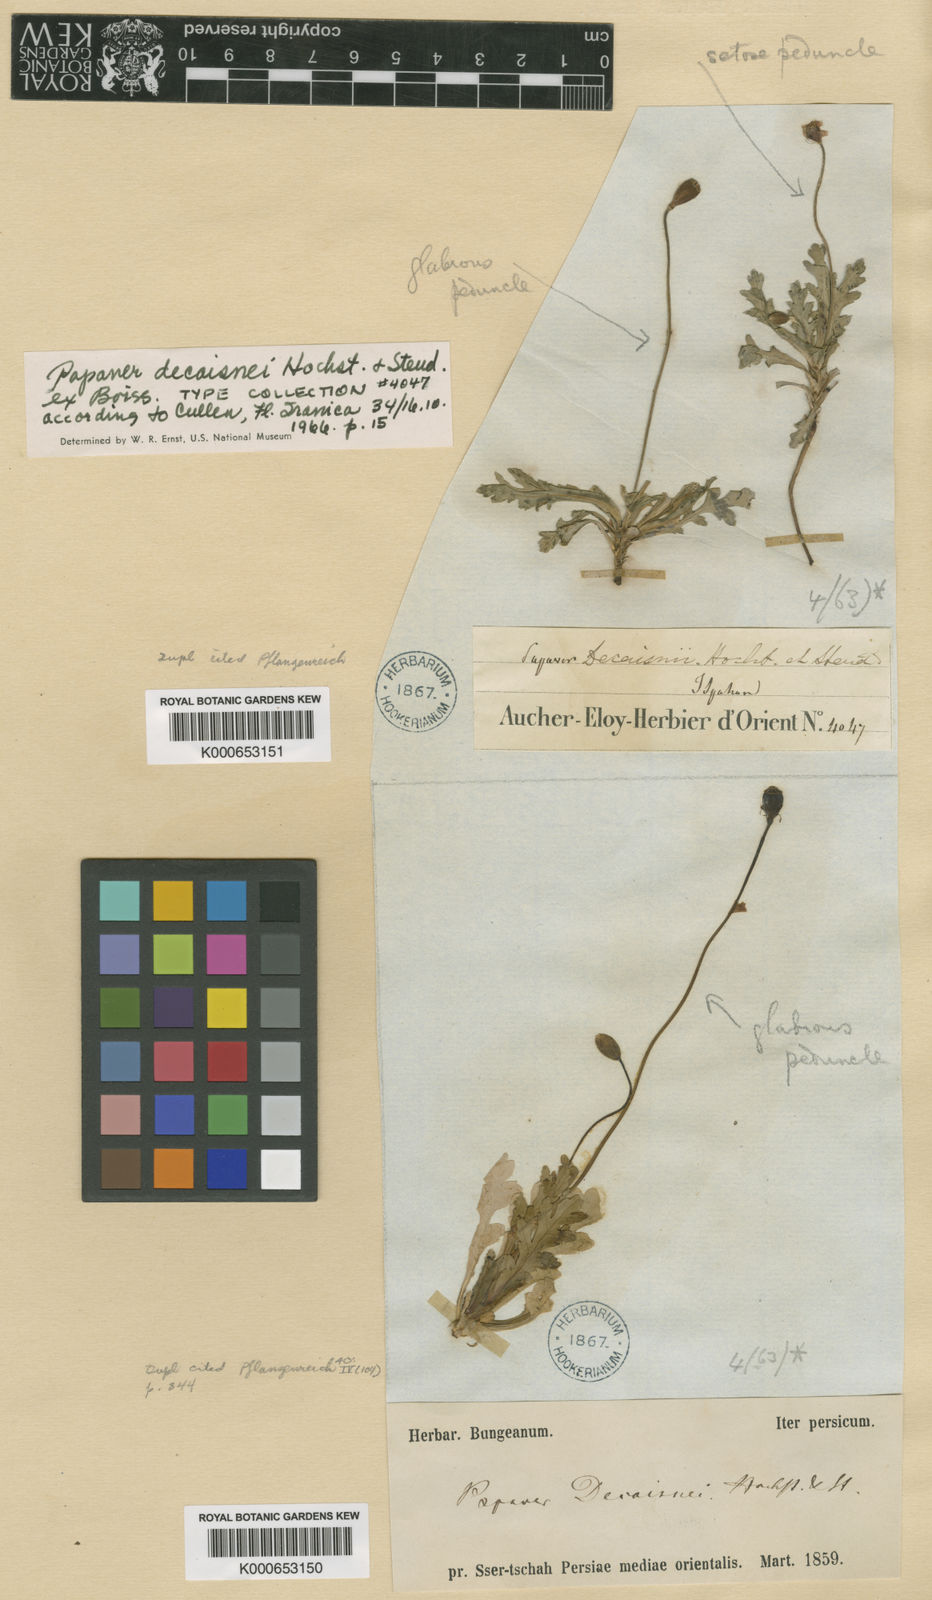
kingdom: Plantae
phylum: Tracheophyta
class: Magnoliopsida
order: Ranunculales
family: Papaveraceae
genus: Papaver
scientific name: Papaver
